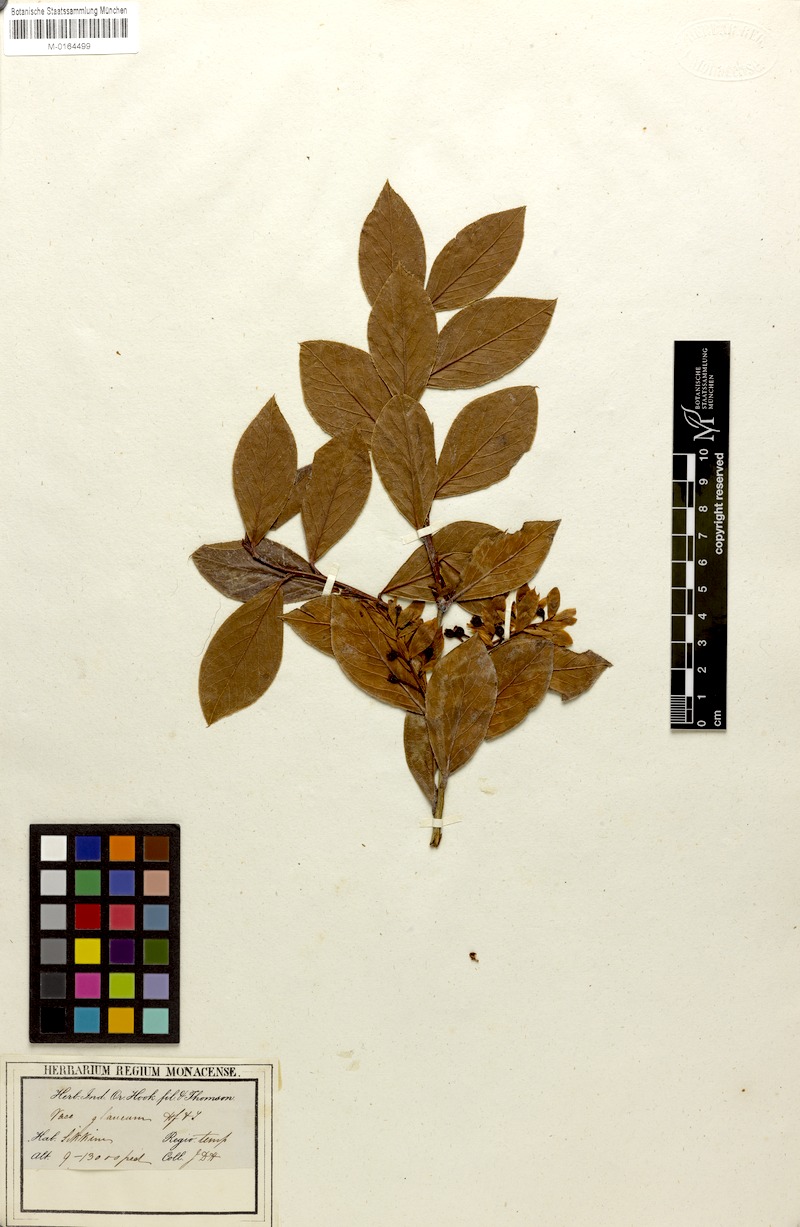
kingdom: Plantae
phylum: Tracheophyta
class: Magnoliopsida
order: Ericales
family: Ericaceae
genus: Gaylussacia
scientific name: Gaylussacia frondosa
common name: Dangleberry
